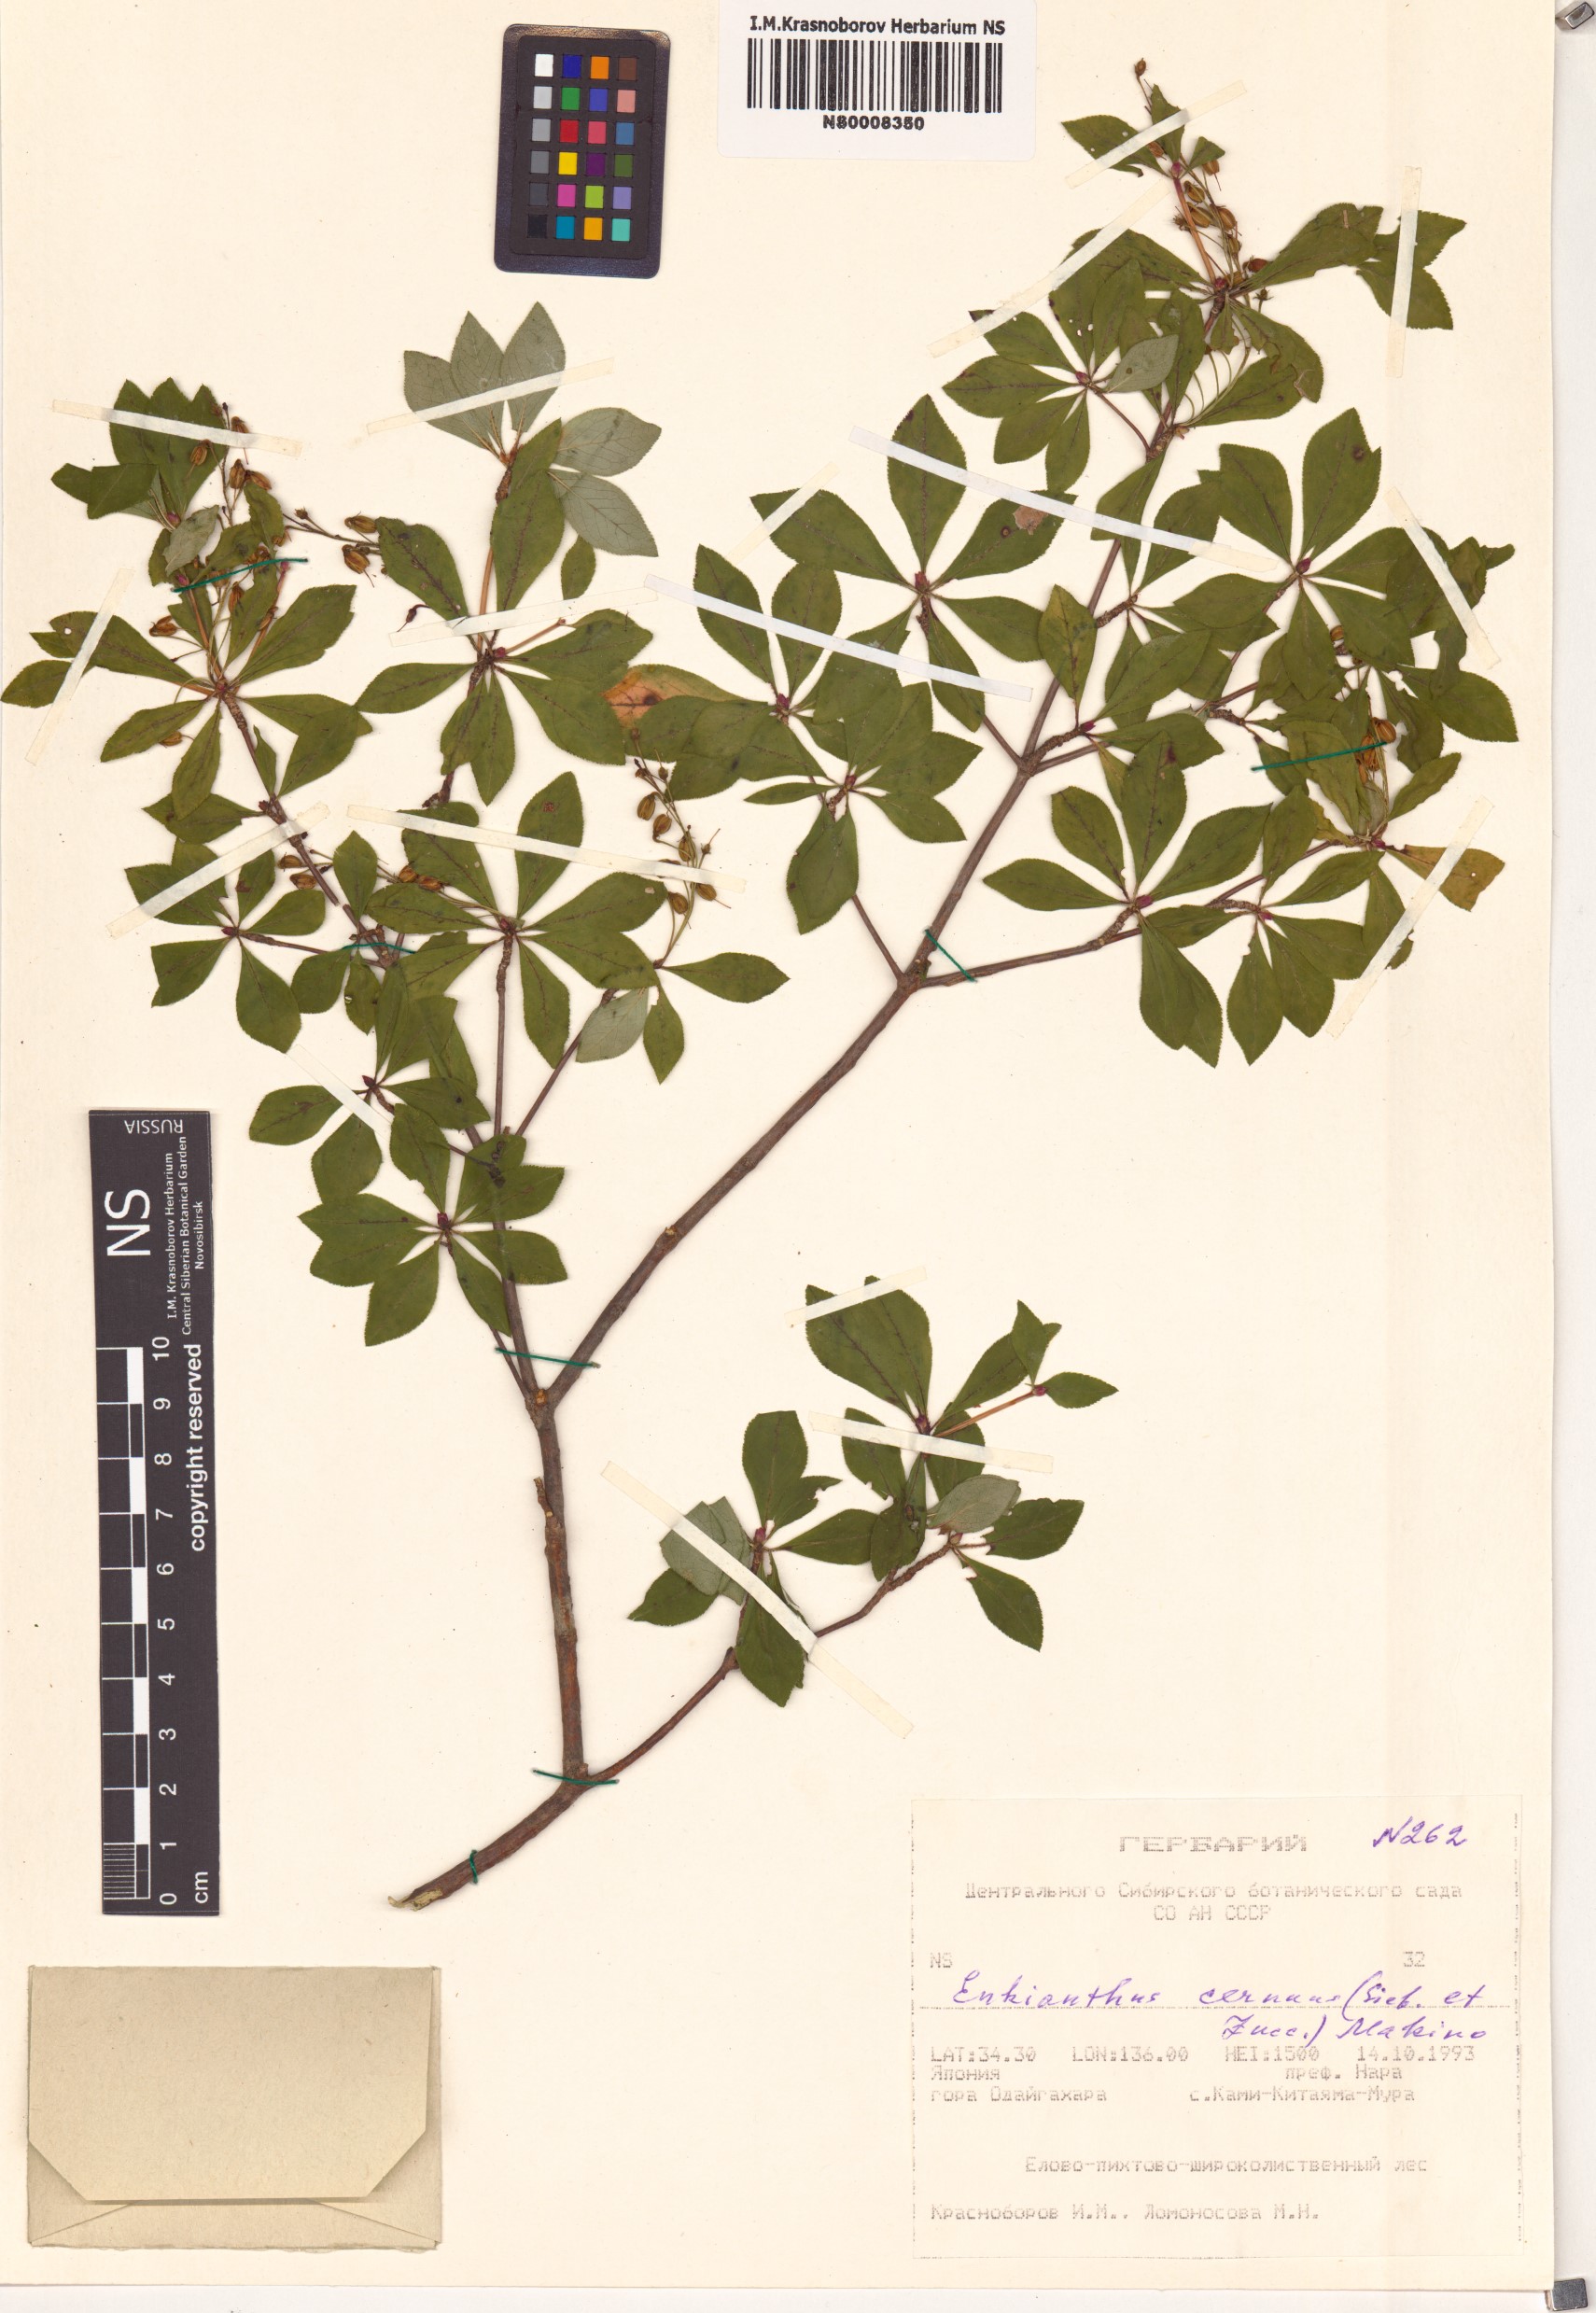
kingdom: Plantae
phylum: Tracheophyta
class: Magnoliopsida
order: Ericales
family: Ericaceae
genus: Enkianthus
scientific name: Enkianthus cernuus
